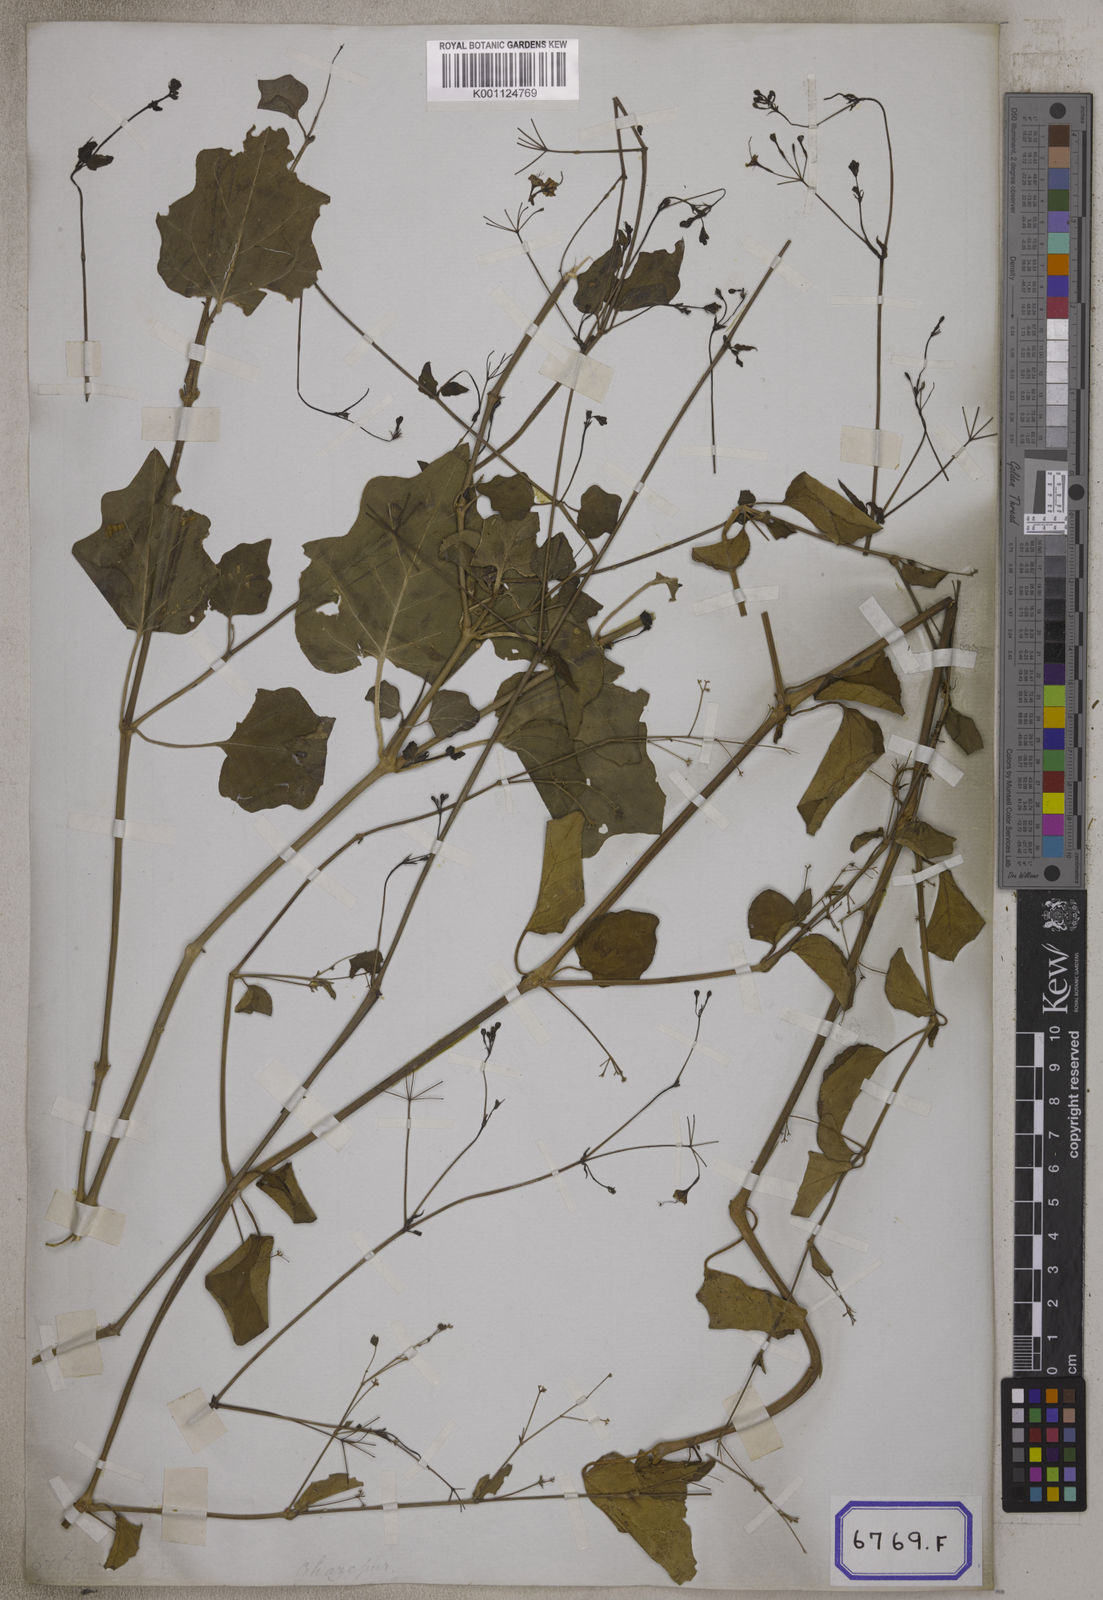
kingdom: Plantae
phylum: Tracheophyta
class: Magnoliopsida
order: Caryophyllales
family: Nyctaginaceae
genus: Commicarpus
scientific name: Commicarpus chinensis
